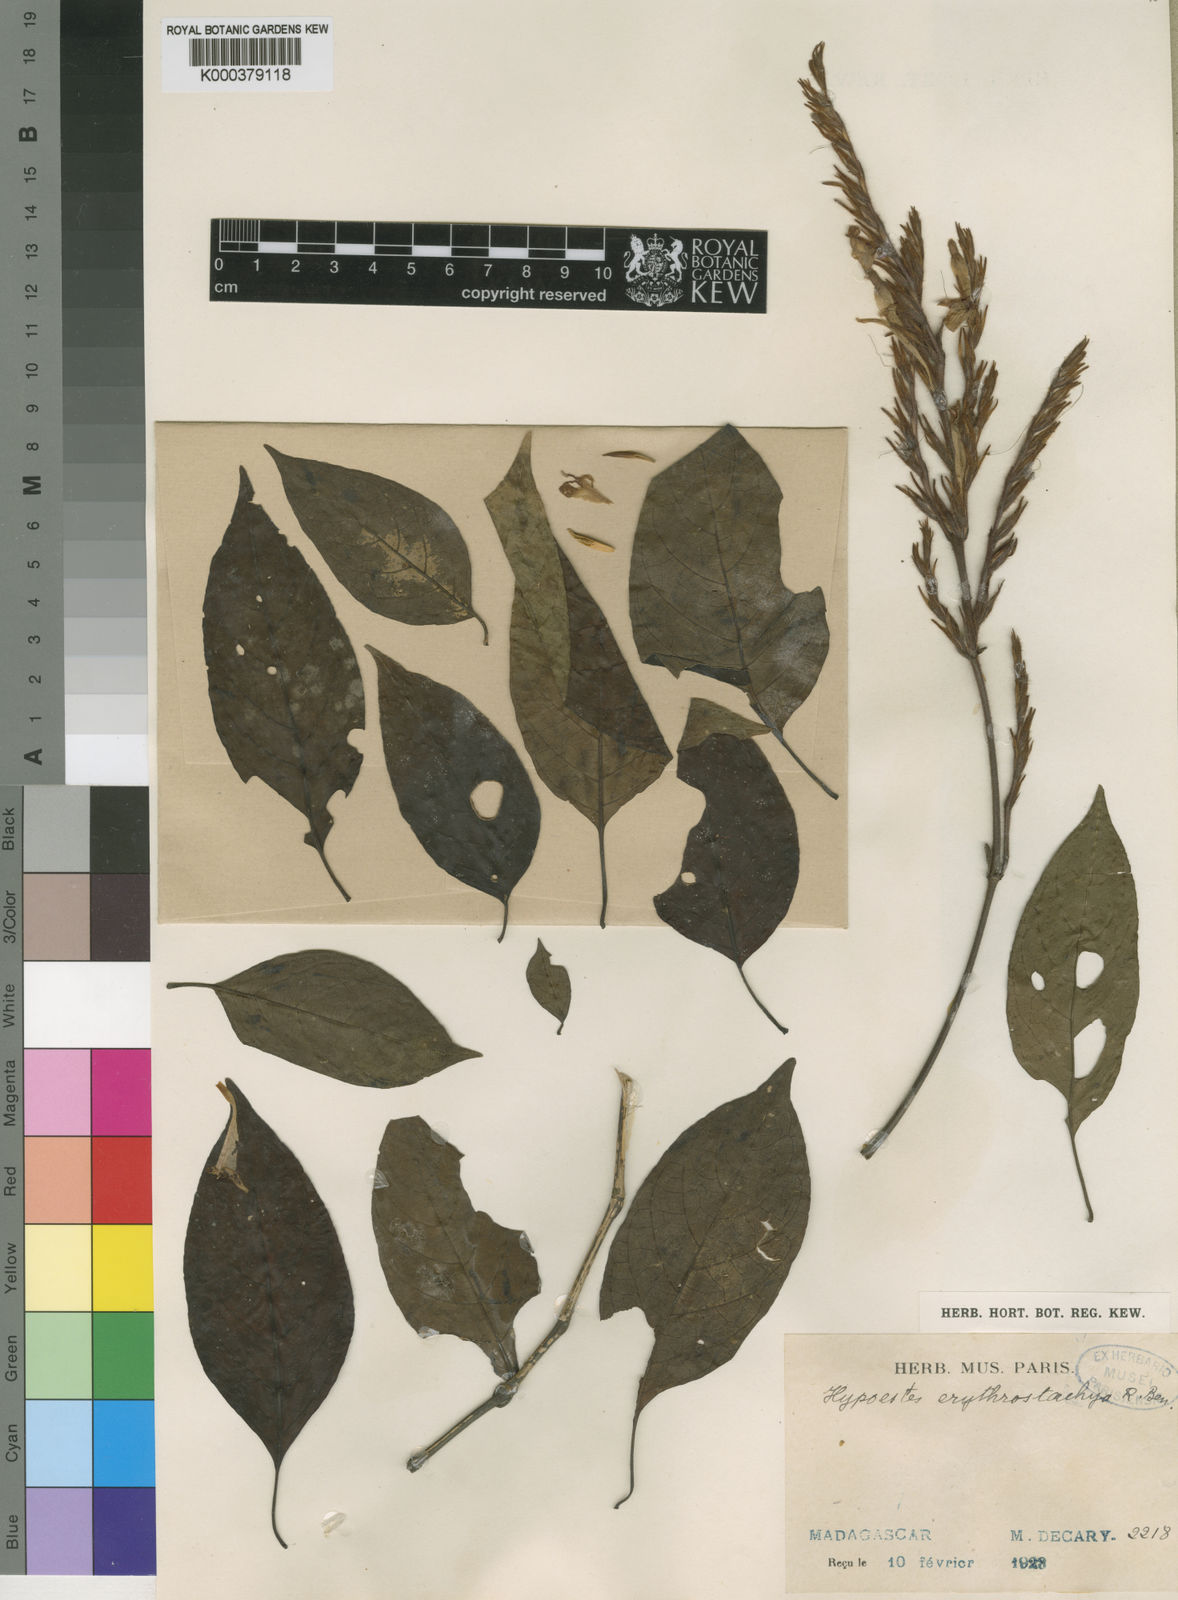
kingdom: Plantae
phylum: Tracheophyta
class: Magnoliopsida
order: Lamiales
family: Acanthaceae
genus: Hypoestes
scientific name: Hypoestes erythrostachya
